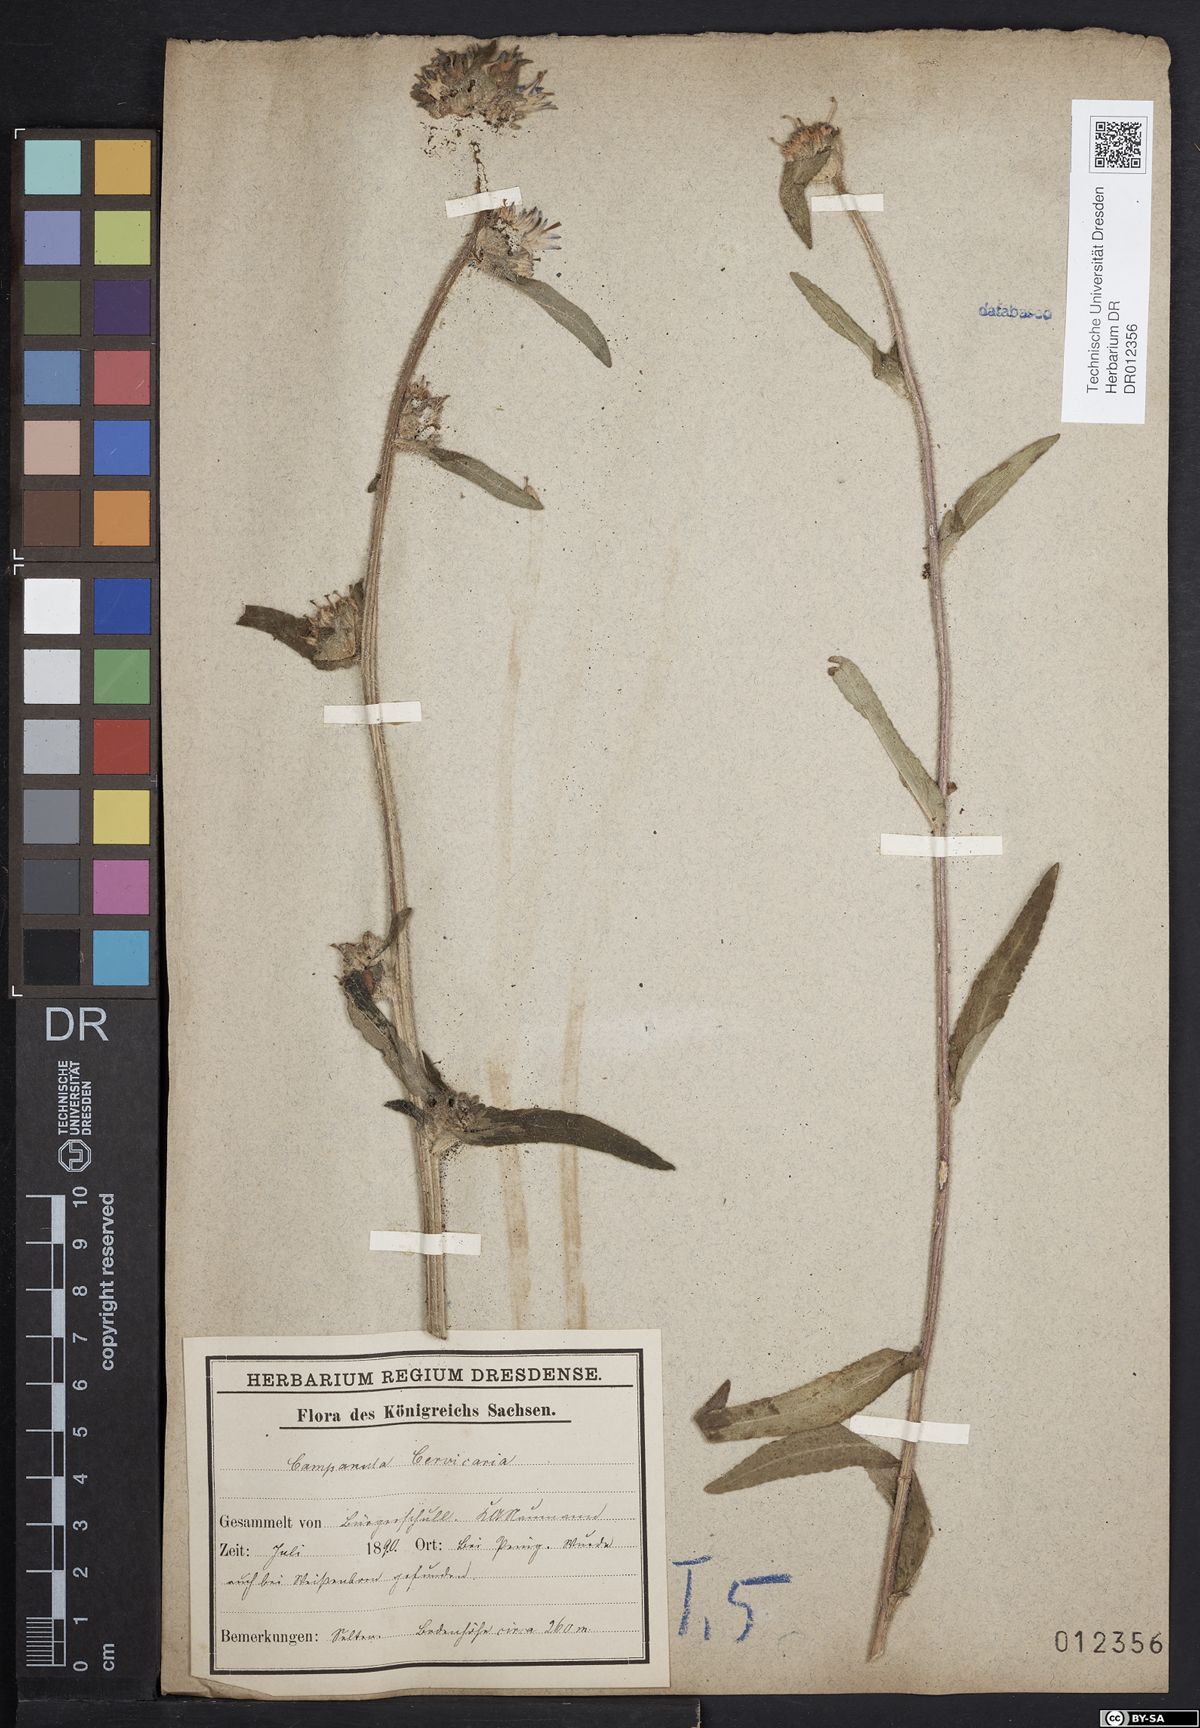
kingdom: Plantae
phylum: Tracheophyta
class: Magnoliopsida
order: Asterales
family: Campanulaceae
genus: Campanula
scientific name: Campanula cervicaria
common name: Bristly bellflower
